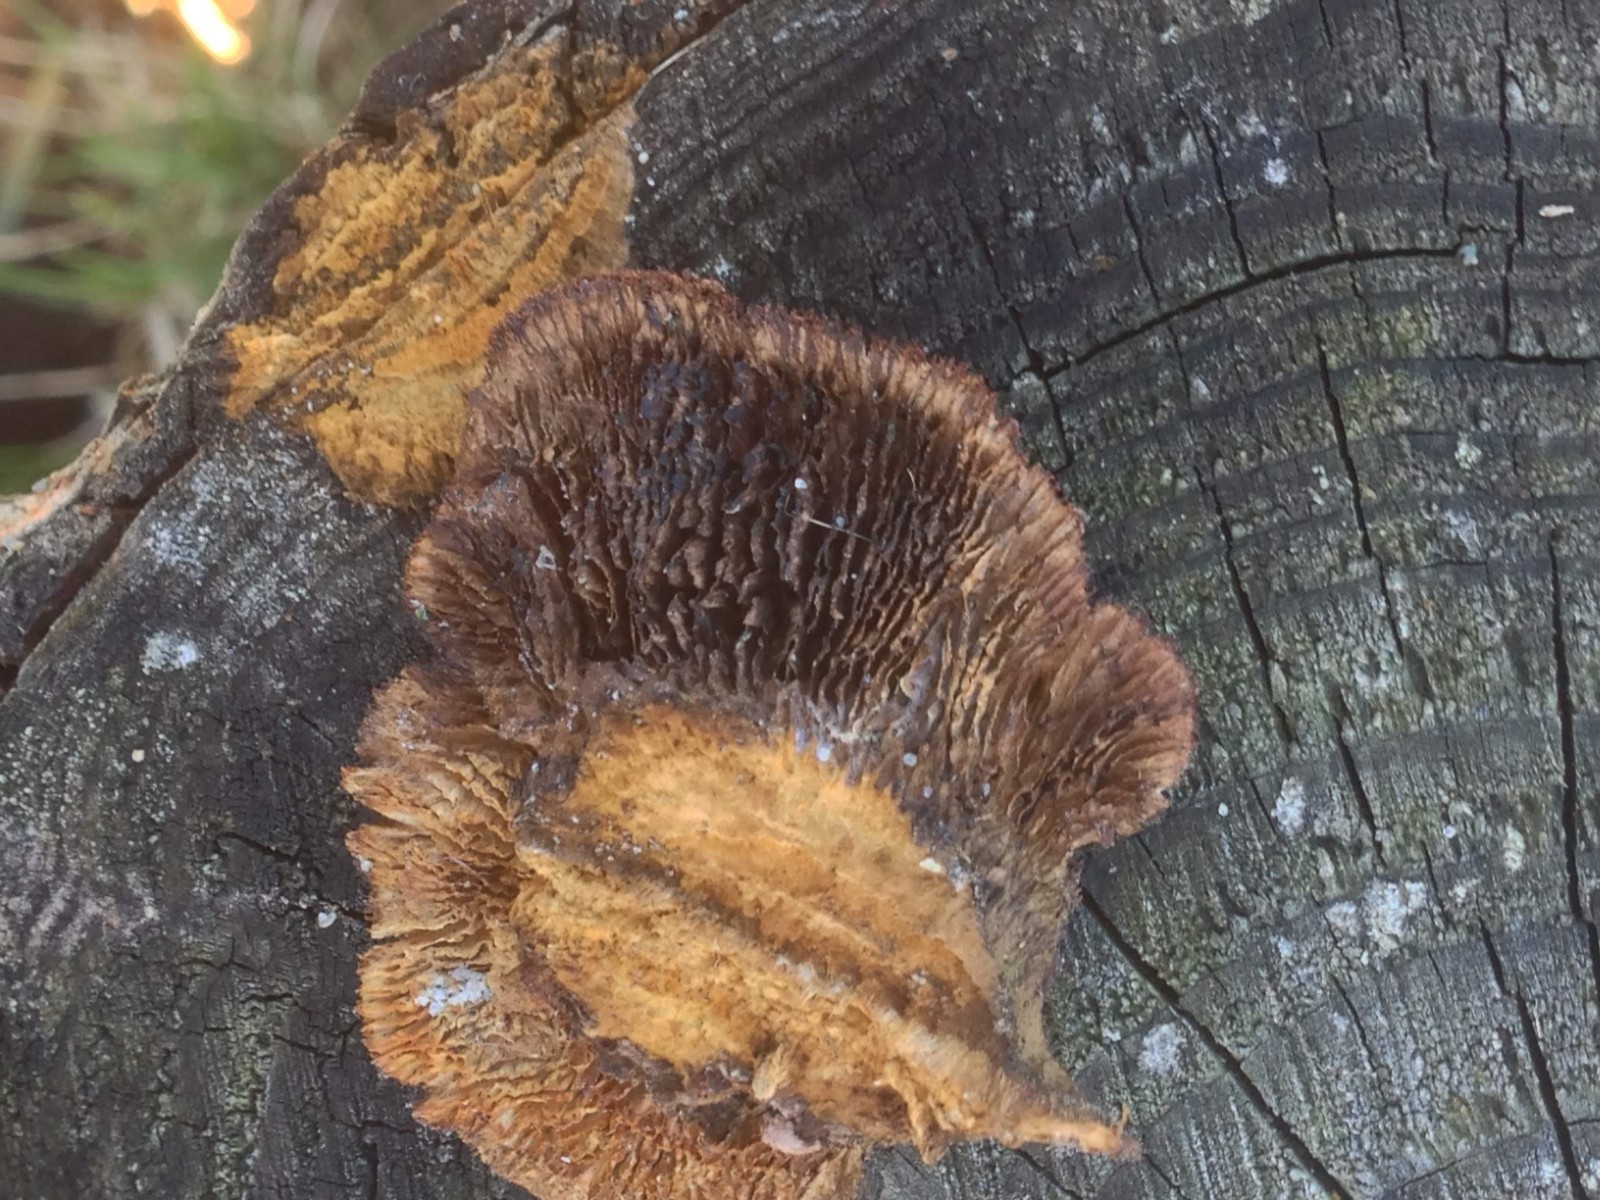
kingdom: Fungi
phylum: Basidiomycota
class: Agaricomycetes
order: Gloeophyllales
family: Gloeophyllaceae
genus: Gloeophyllum
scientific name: Gloeophyllum sepiarium
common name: fyrre-korkhat
